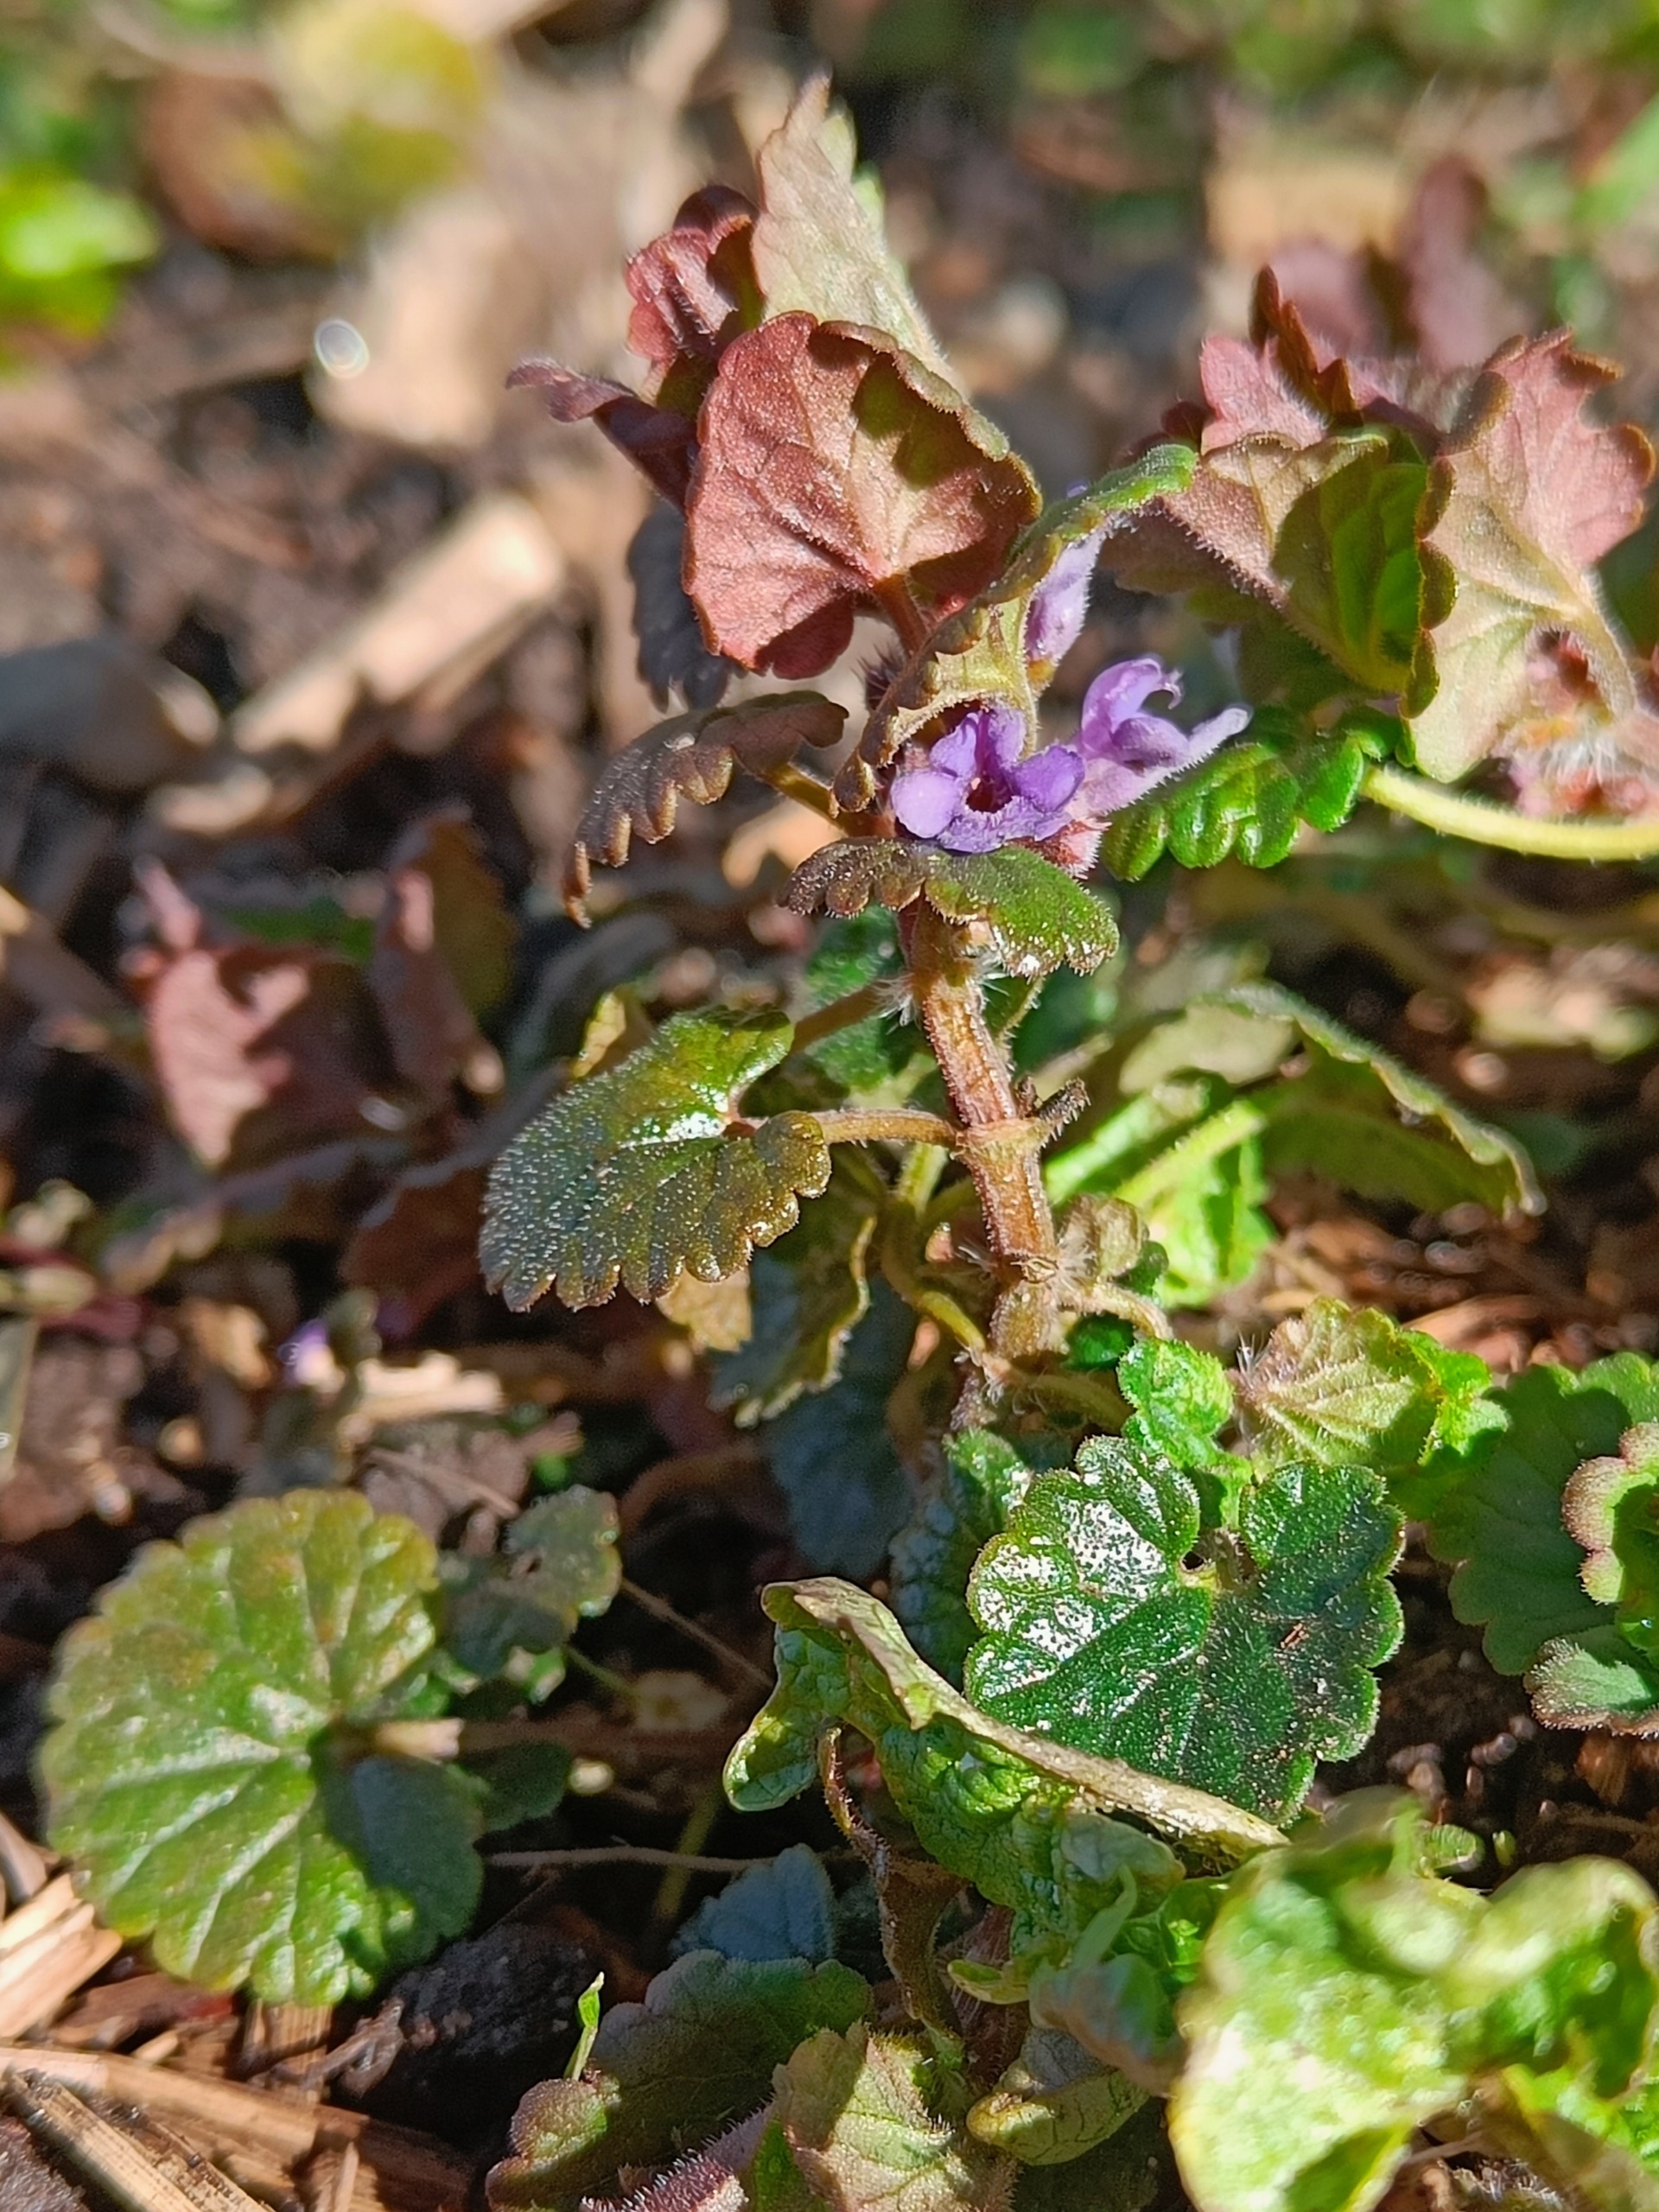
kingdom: Plantae
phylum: Tracheophyta
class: Magnoliopsida
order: Lamiales
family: Lamiaceae
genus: Glechoma
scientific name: Glechoma hederacea
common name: Korsknap
